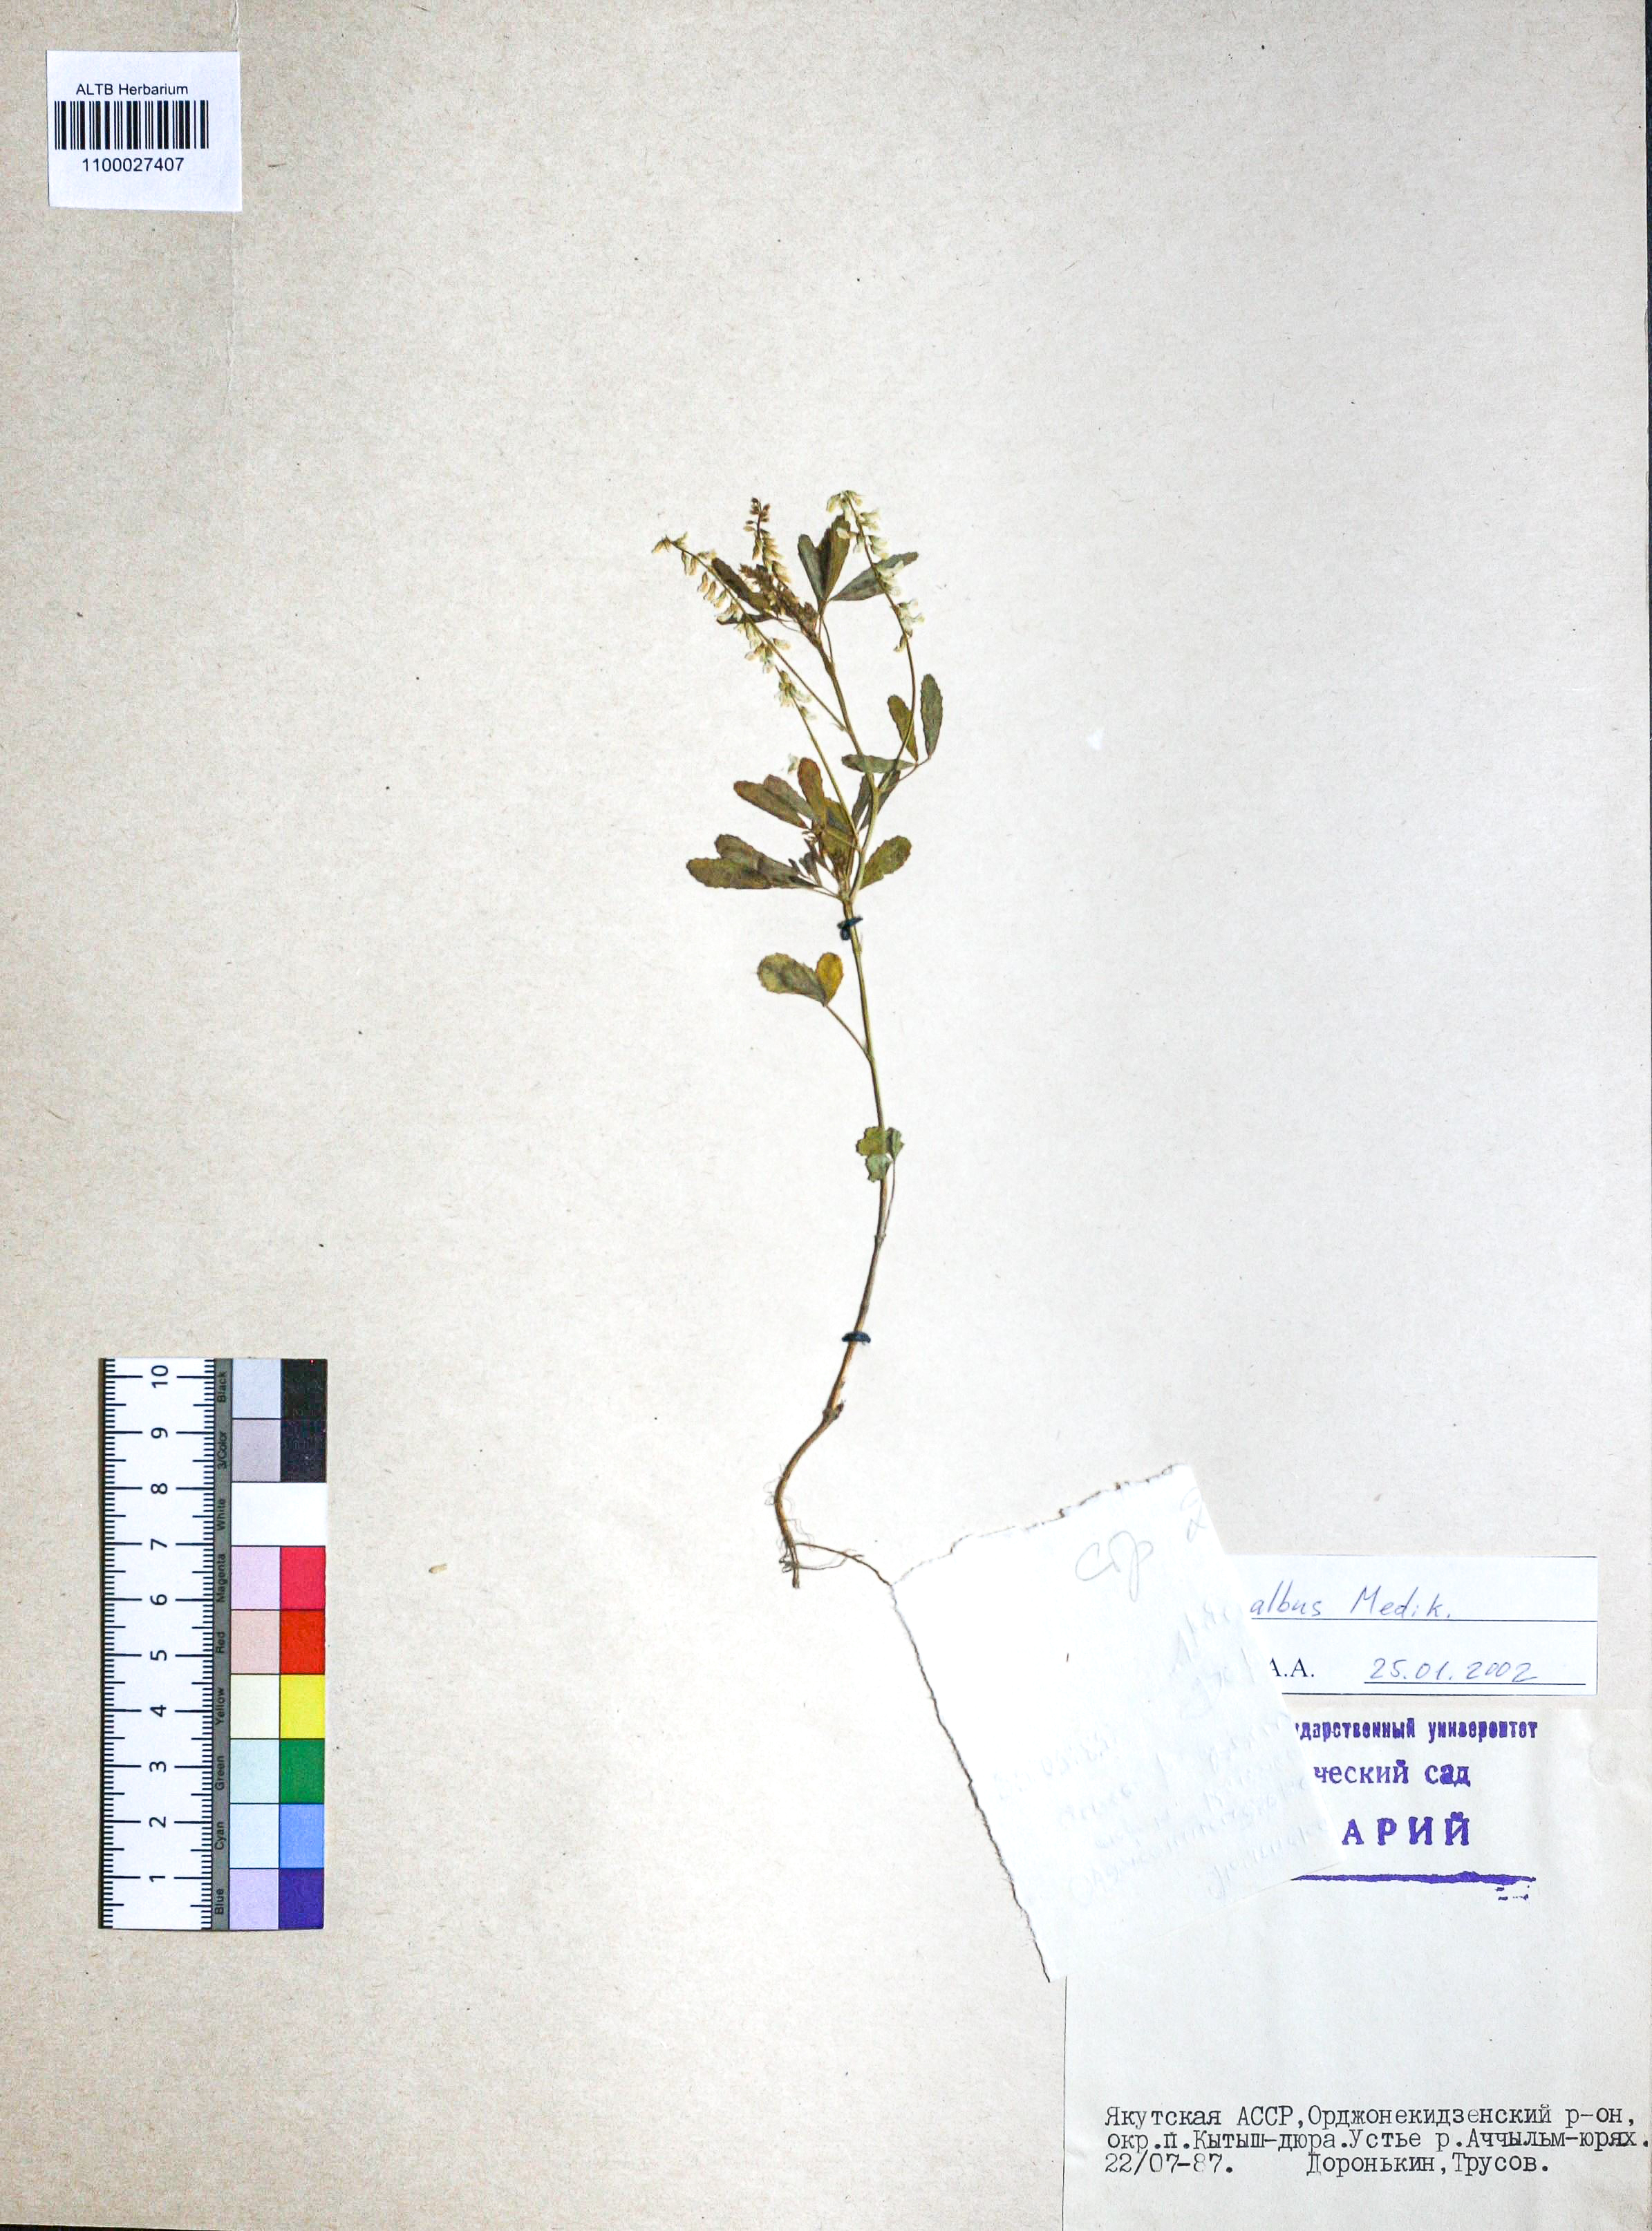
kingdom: Plantae
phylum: Tracheophyta
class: Magnoliopsida
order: Fabales
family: Fabaceae
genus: Melilotus
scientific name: Melilotus albus
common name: White melilot
